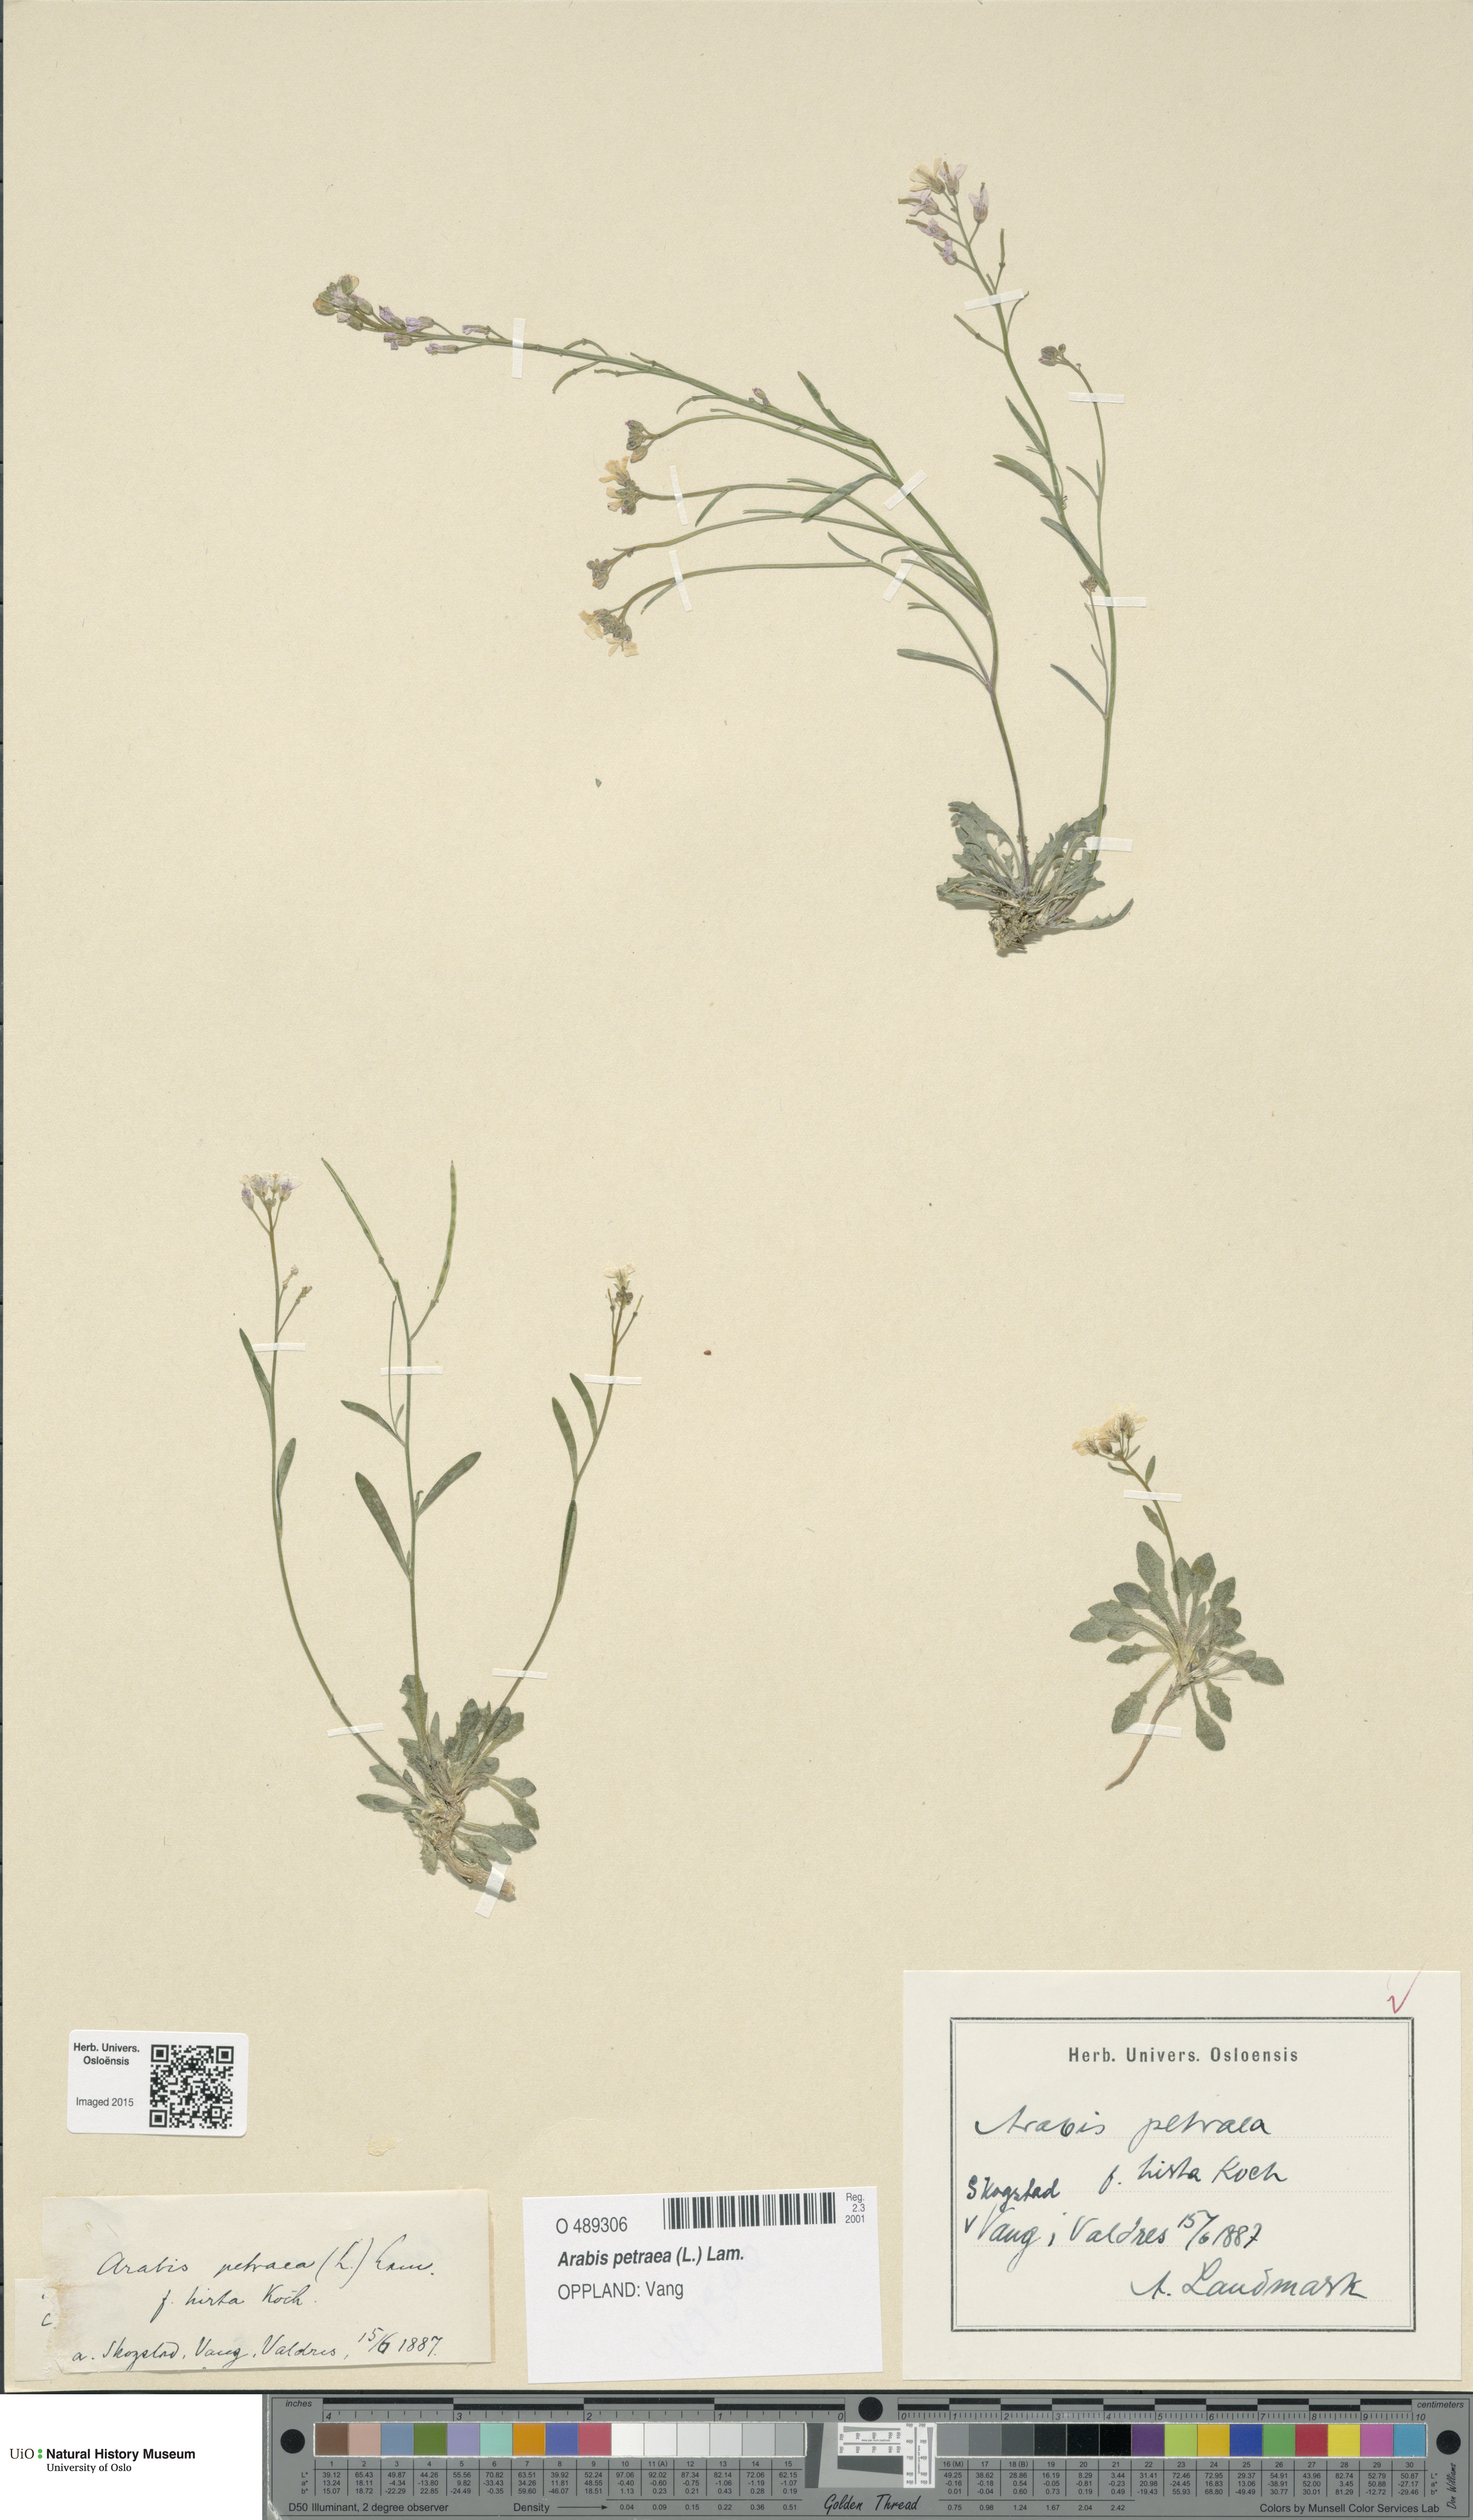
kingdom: Plantae
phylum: Tracheophyta
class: Magnoliopsida
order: Brassicales
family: Brassicaceae
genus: Arabidopsis
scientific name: Arabidopsis petraea
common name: Northern rock-cress
